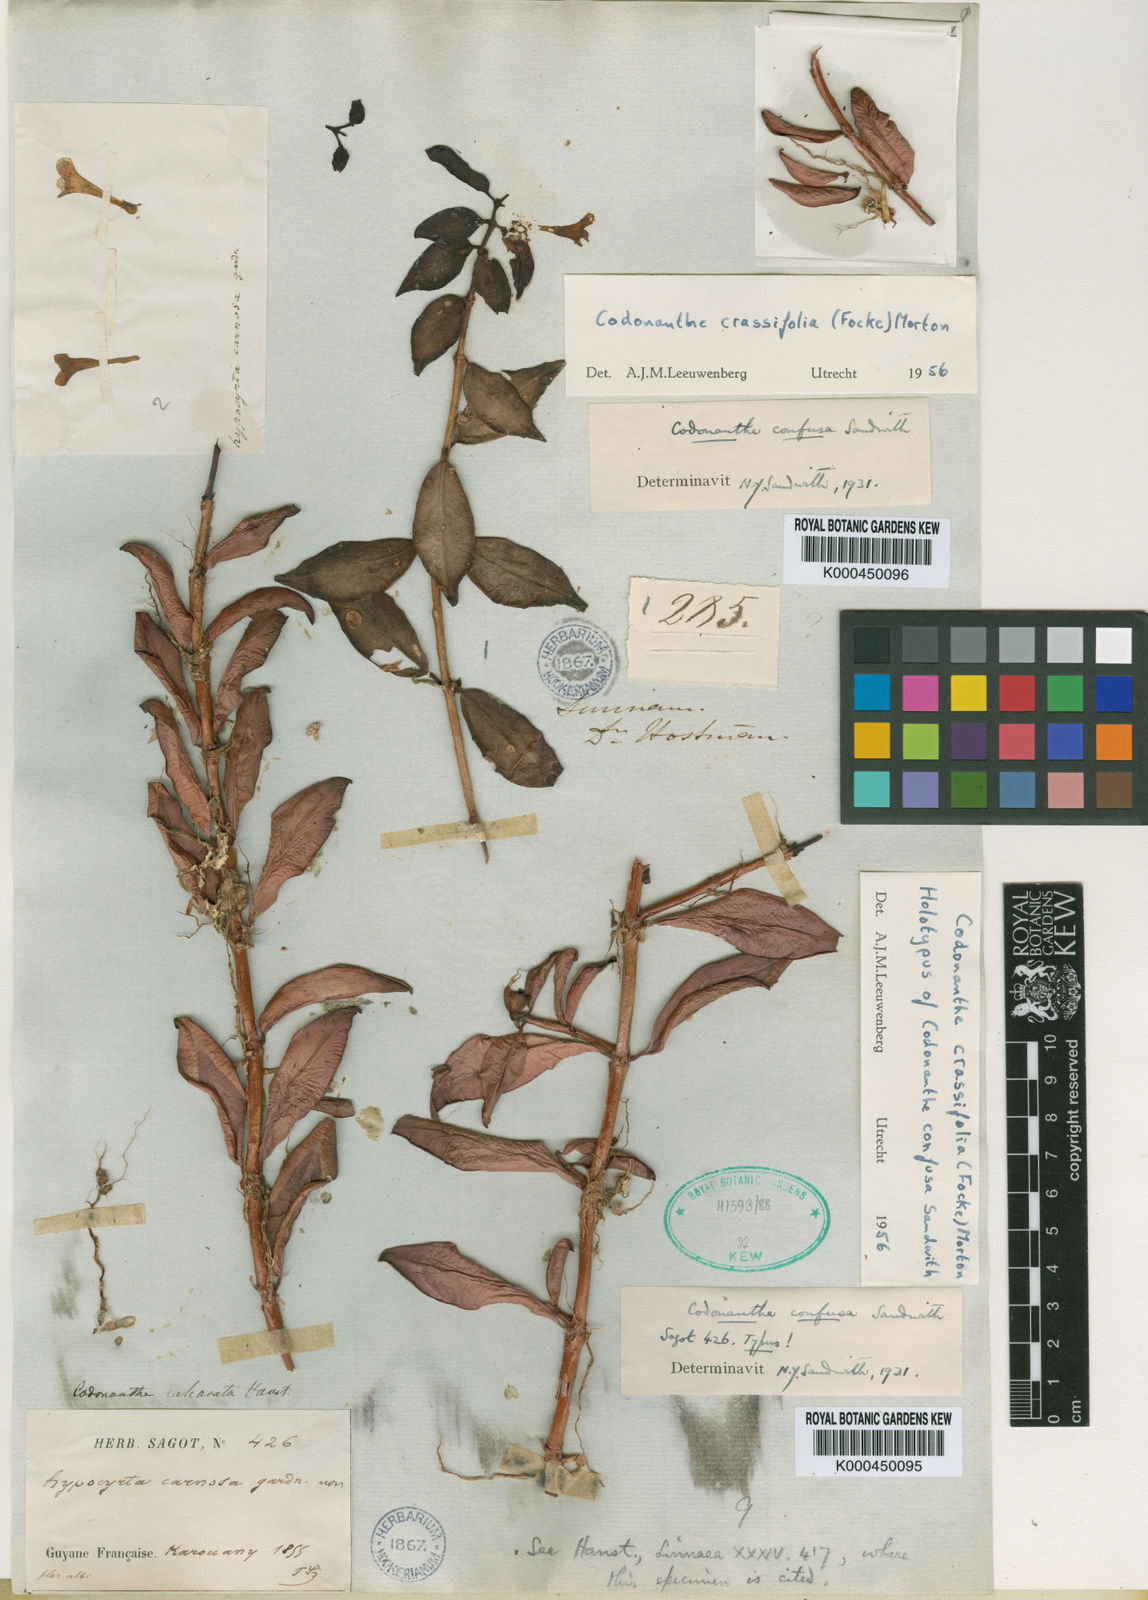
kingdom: Plantae
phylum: Tracheophyta
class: Magnoliopsida
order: Lamiales
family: Gesneriaceae
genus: Codonanthopsis
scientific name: Codonanthopsis crassifolia
